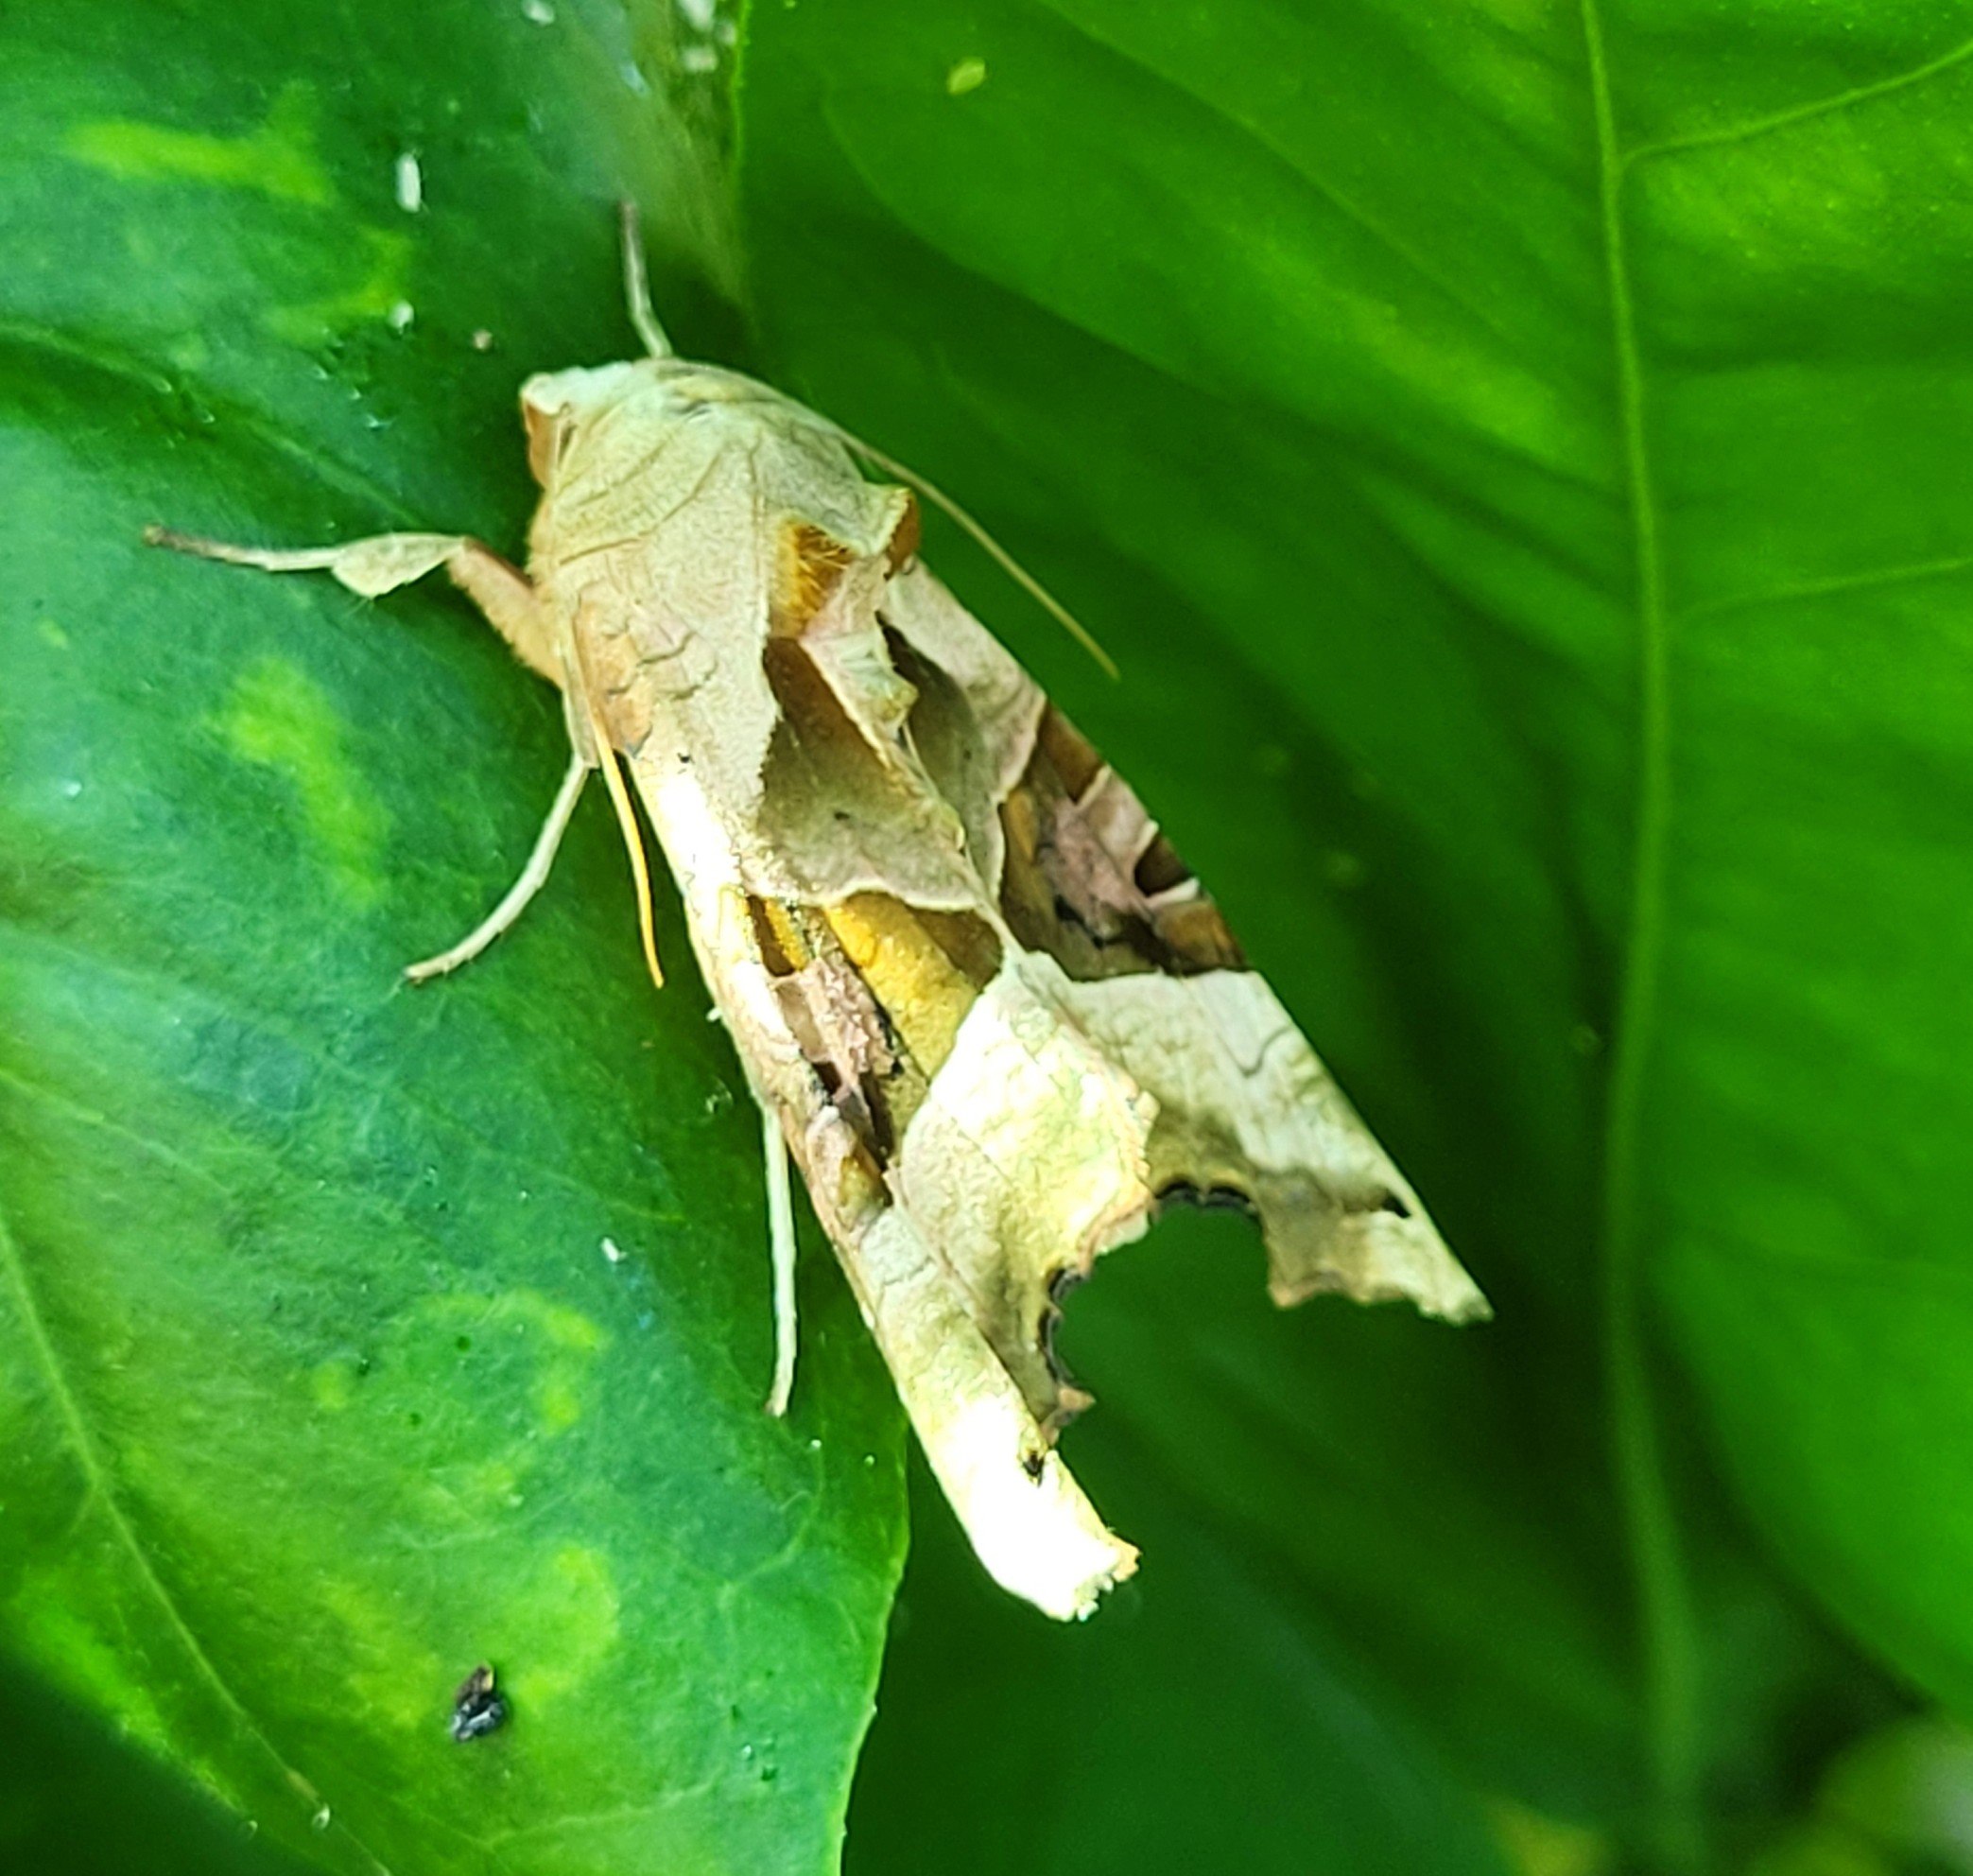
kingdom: Animalia
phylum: Arthropoda
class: Insecta
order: Lepidoptera
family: Noctuidae
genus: Phlogophora
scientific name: Phlogophora meticulosa
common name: Agatugle
